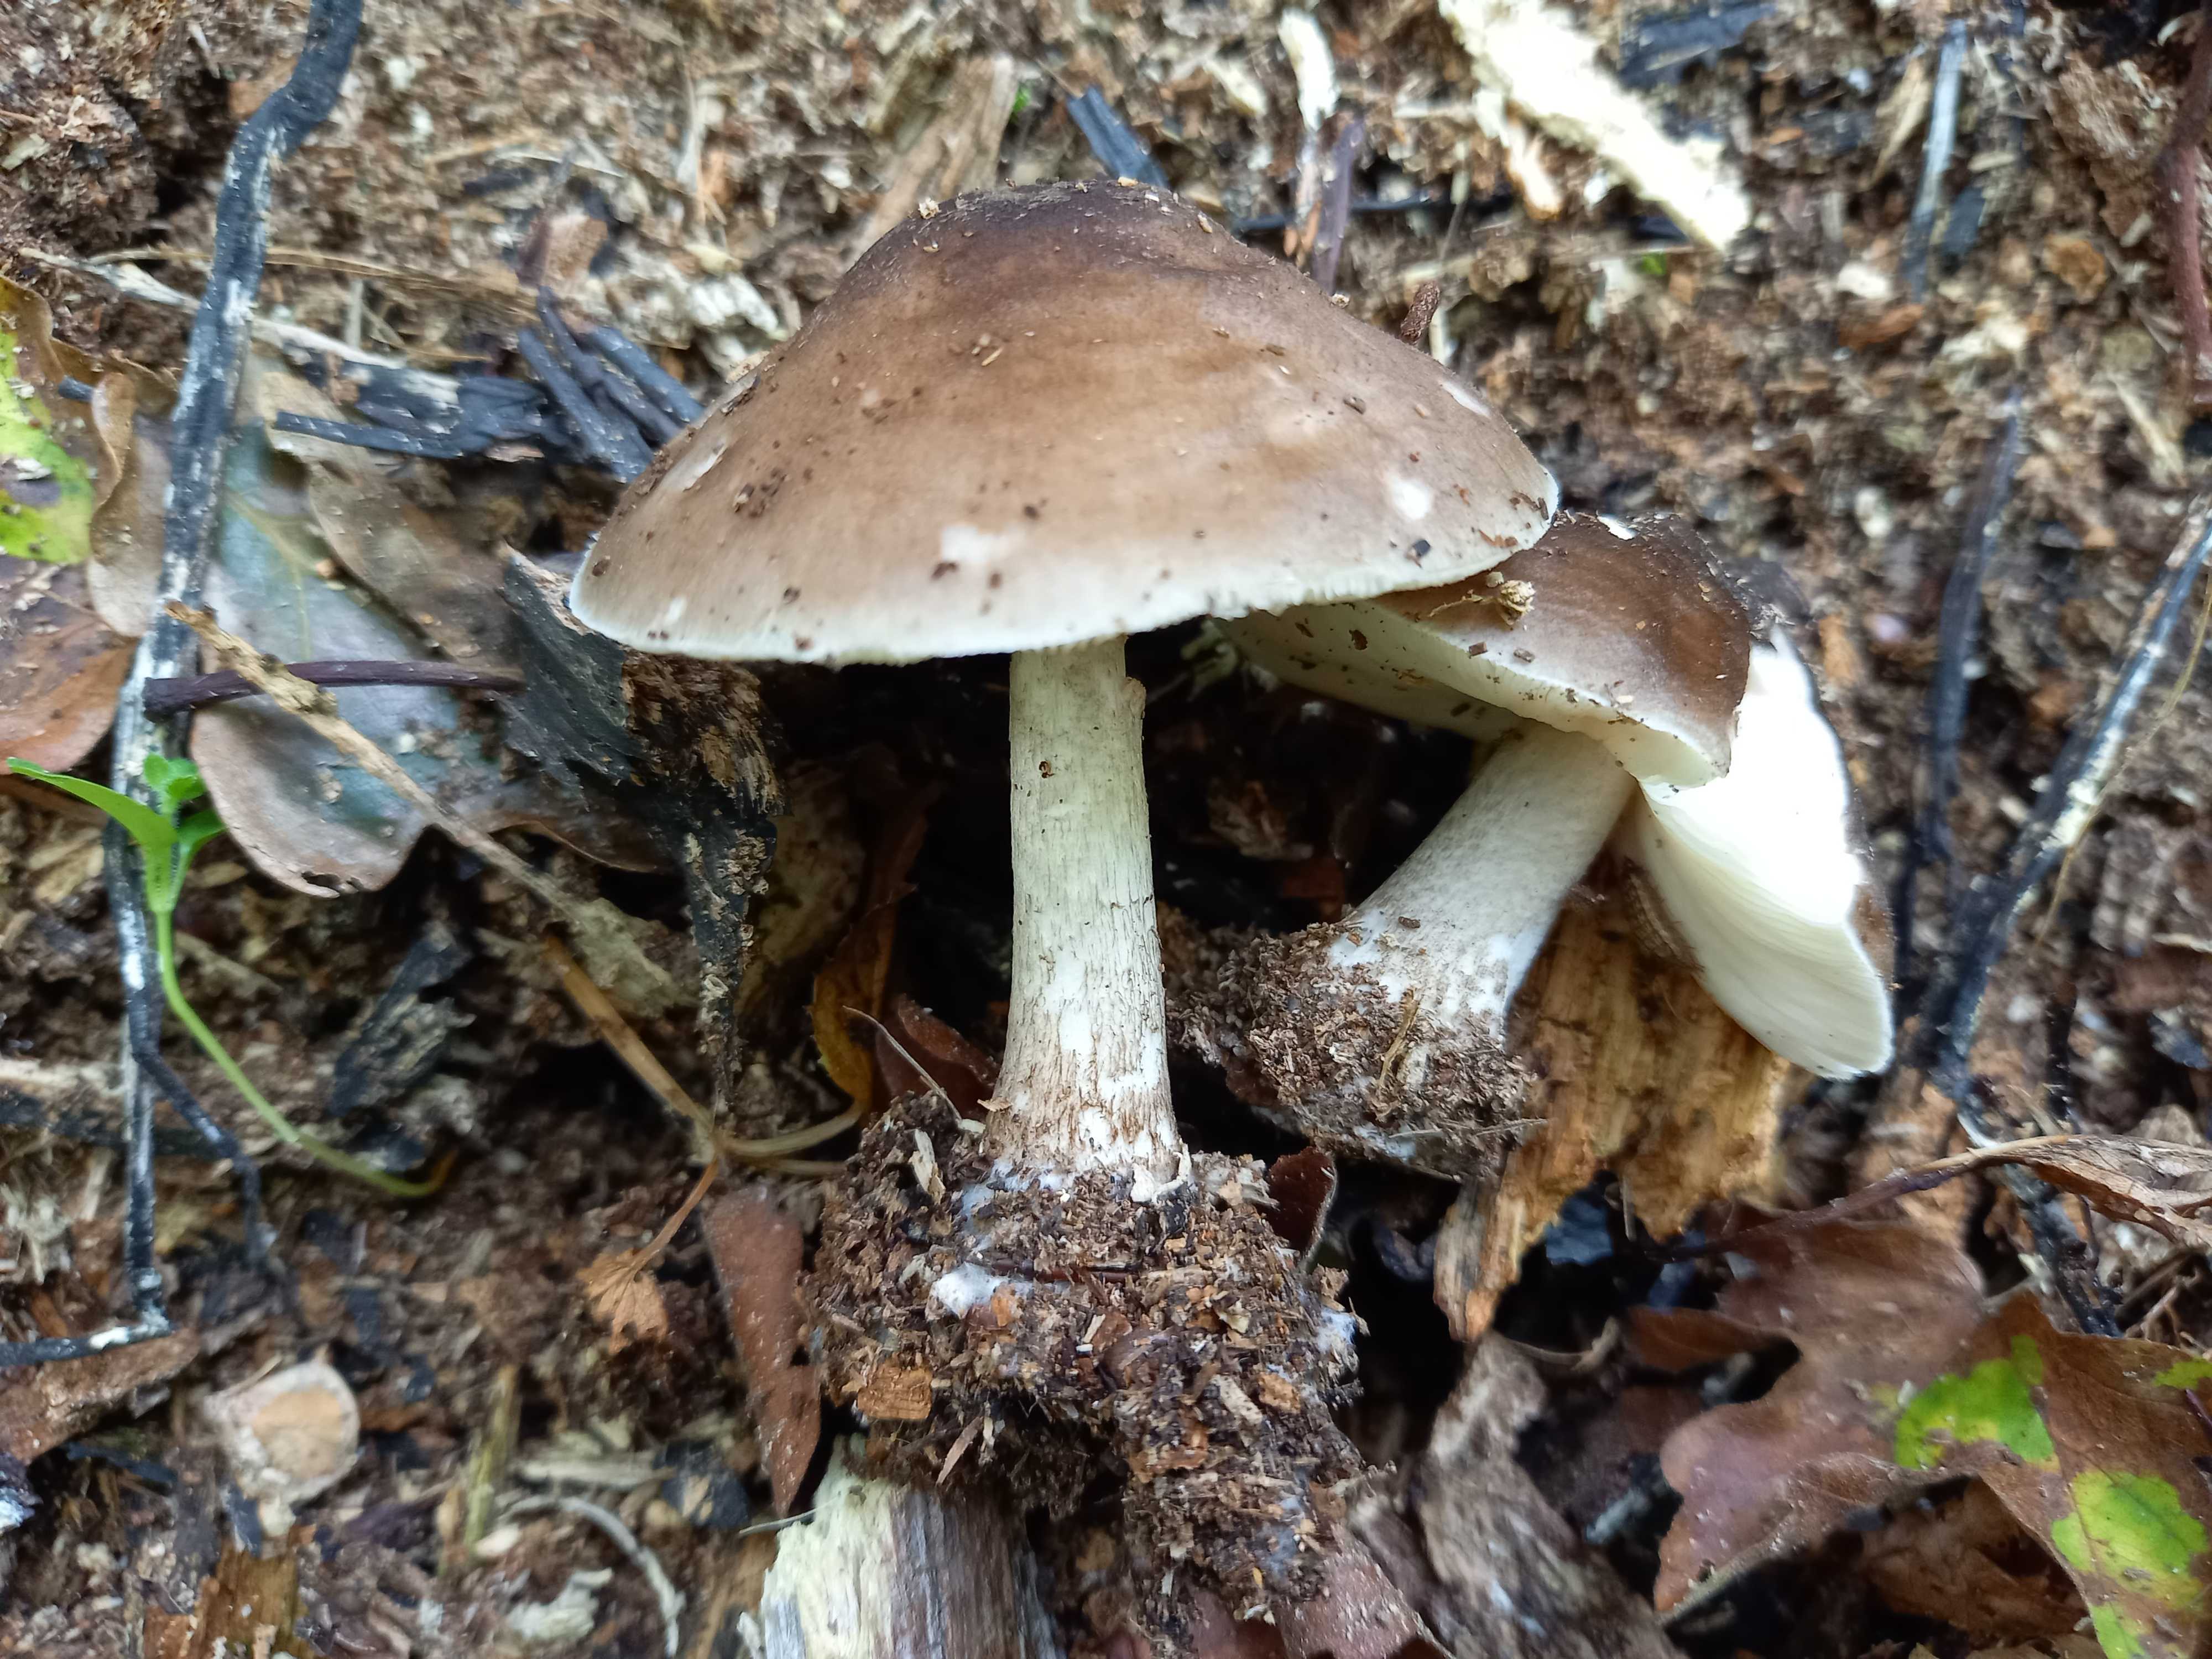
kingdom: Fungi
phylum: Basidiomycota
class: Agaricomycetes
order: Agaricales
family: Pluteaceae
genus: Pluteus
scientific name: Pluteus cervinus
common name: sodfarvet skærmhat
